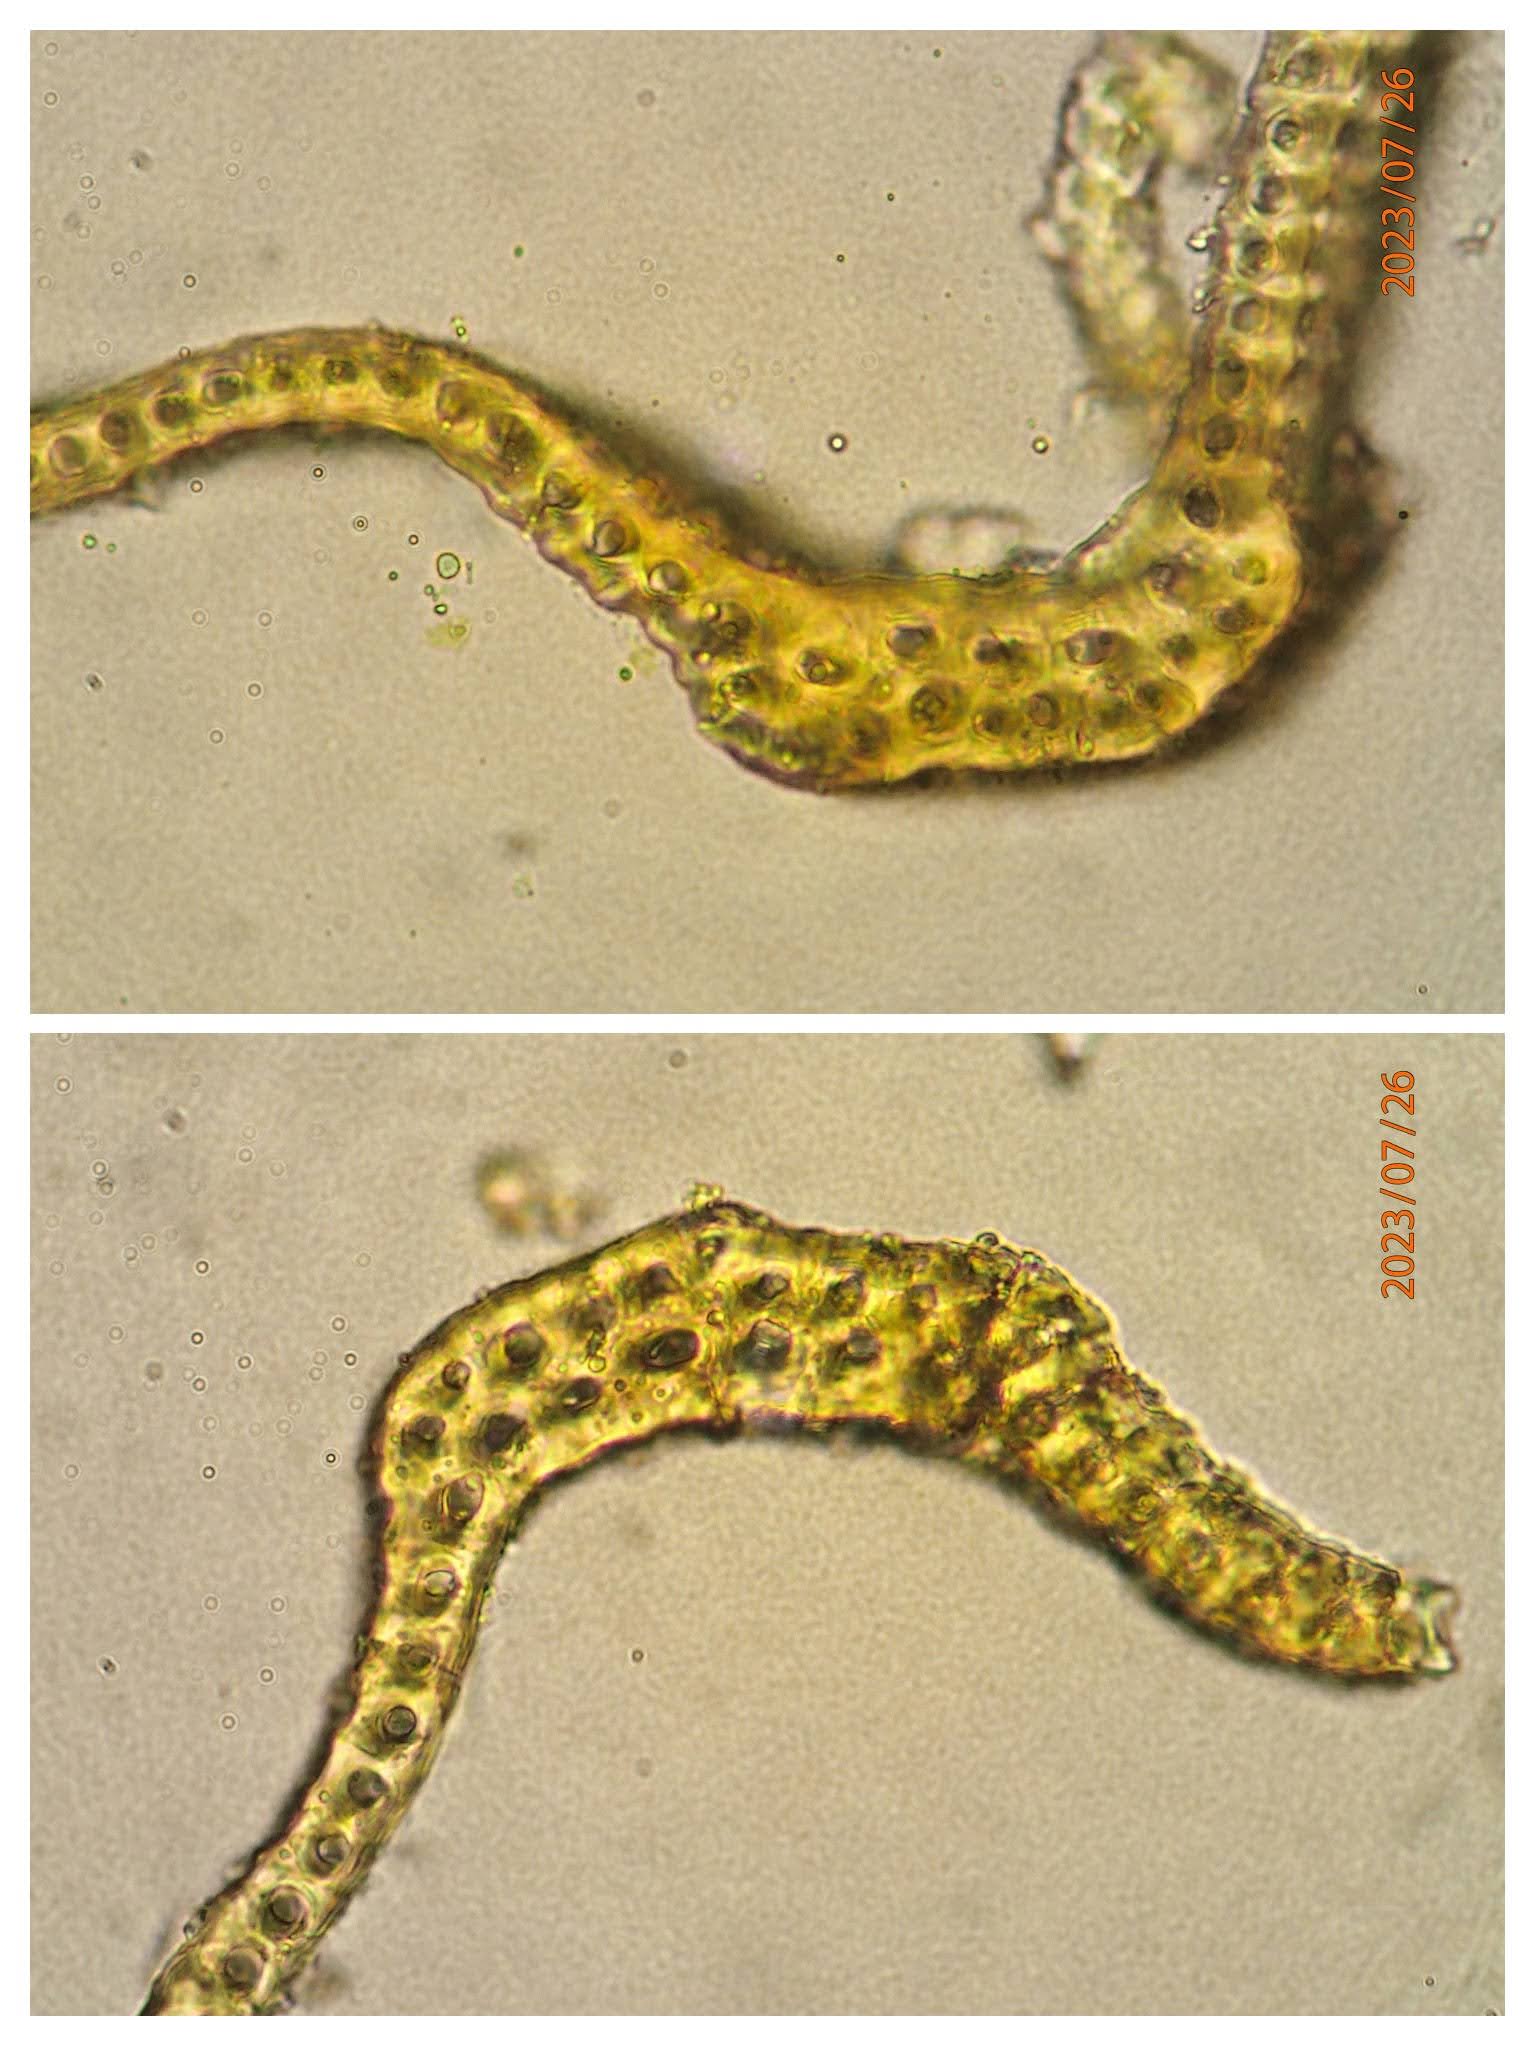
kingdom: Plantae
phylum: Bryophyta
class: Bryopsida
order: Grimmiales
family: Grimmiaceae
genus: Bucklandiella
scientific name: Bucklandiella heterosticha
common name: Sten-børstemos
